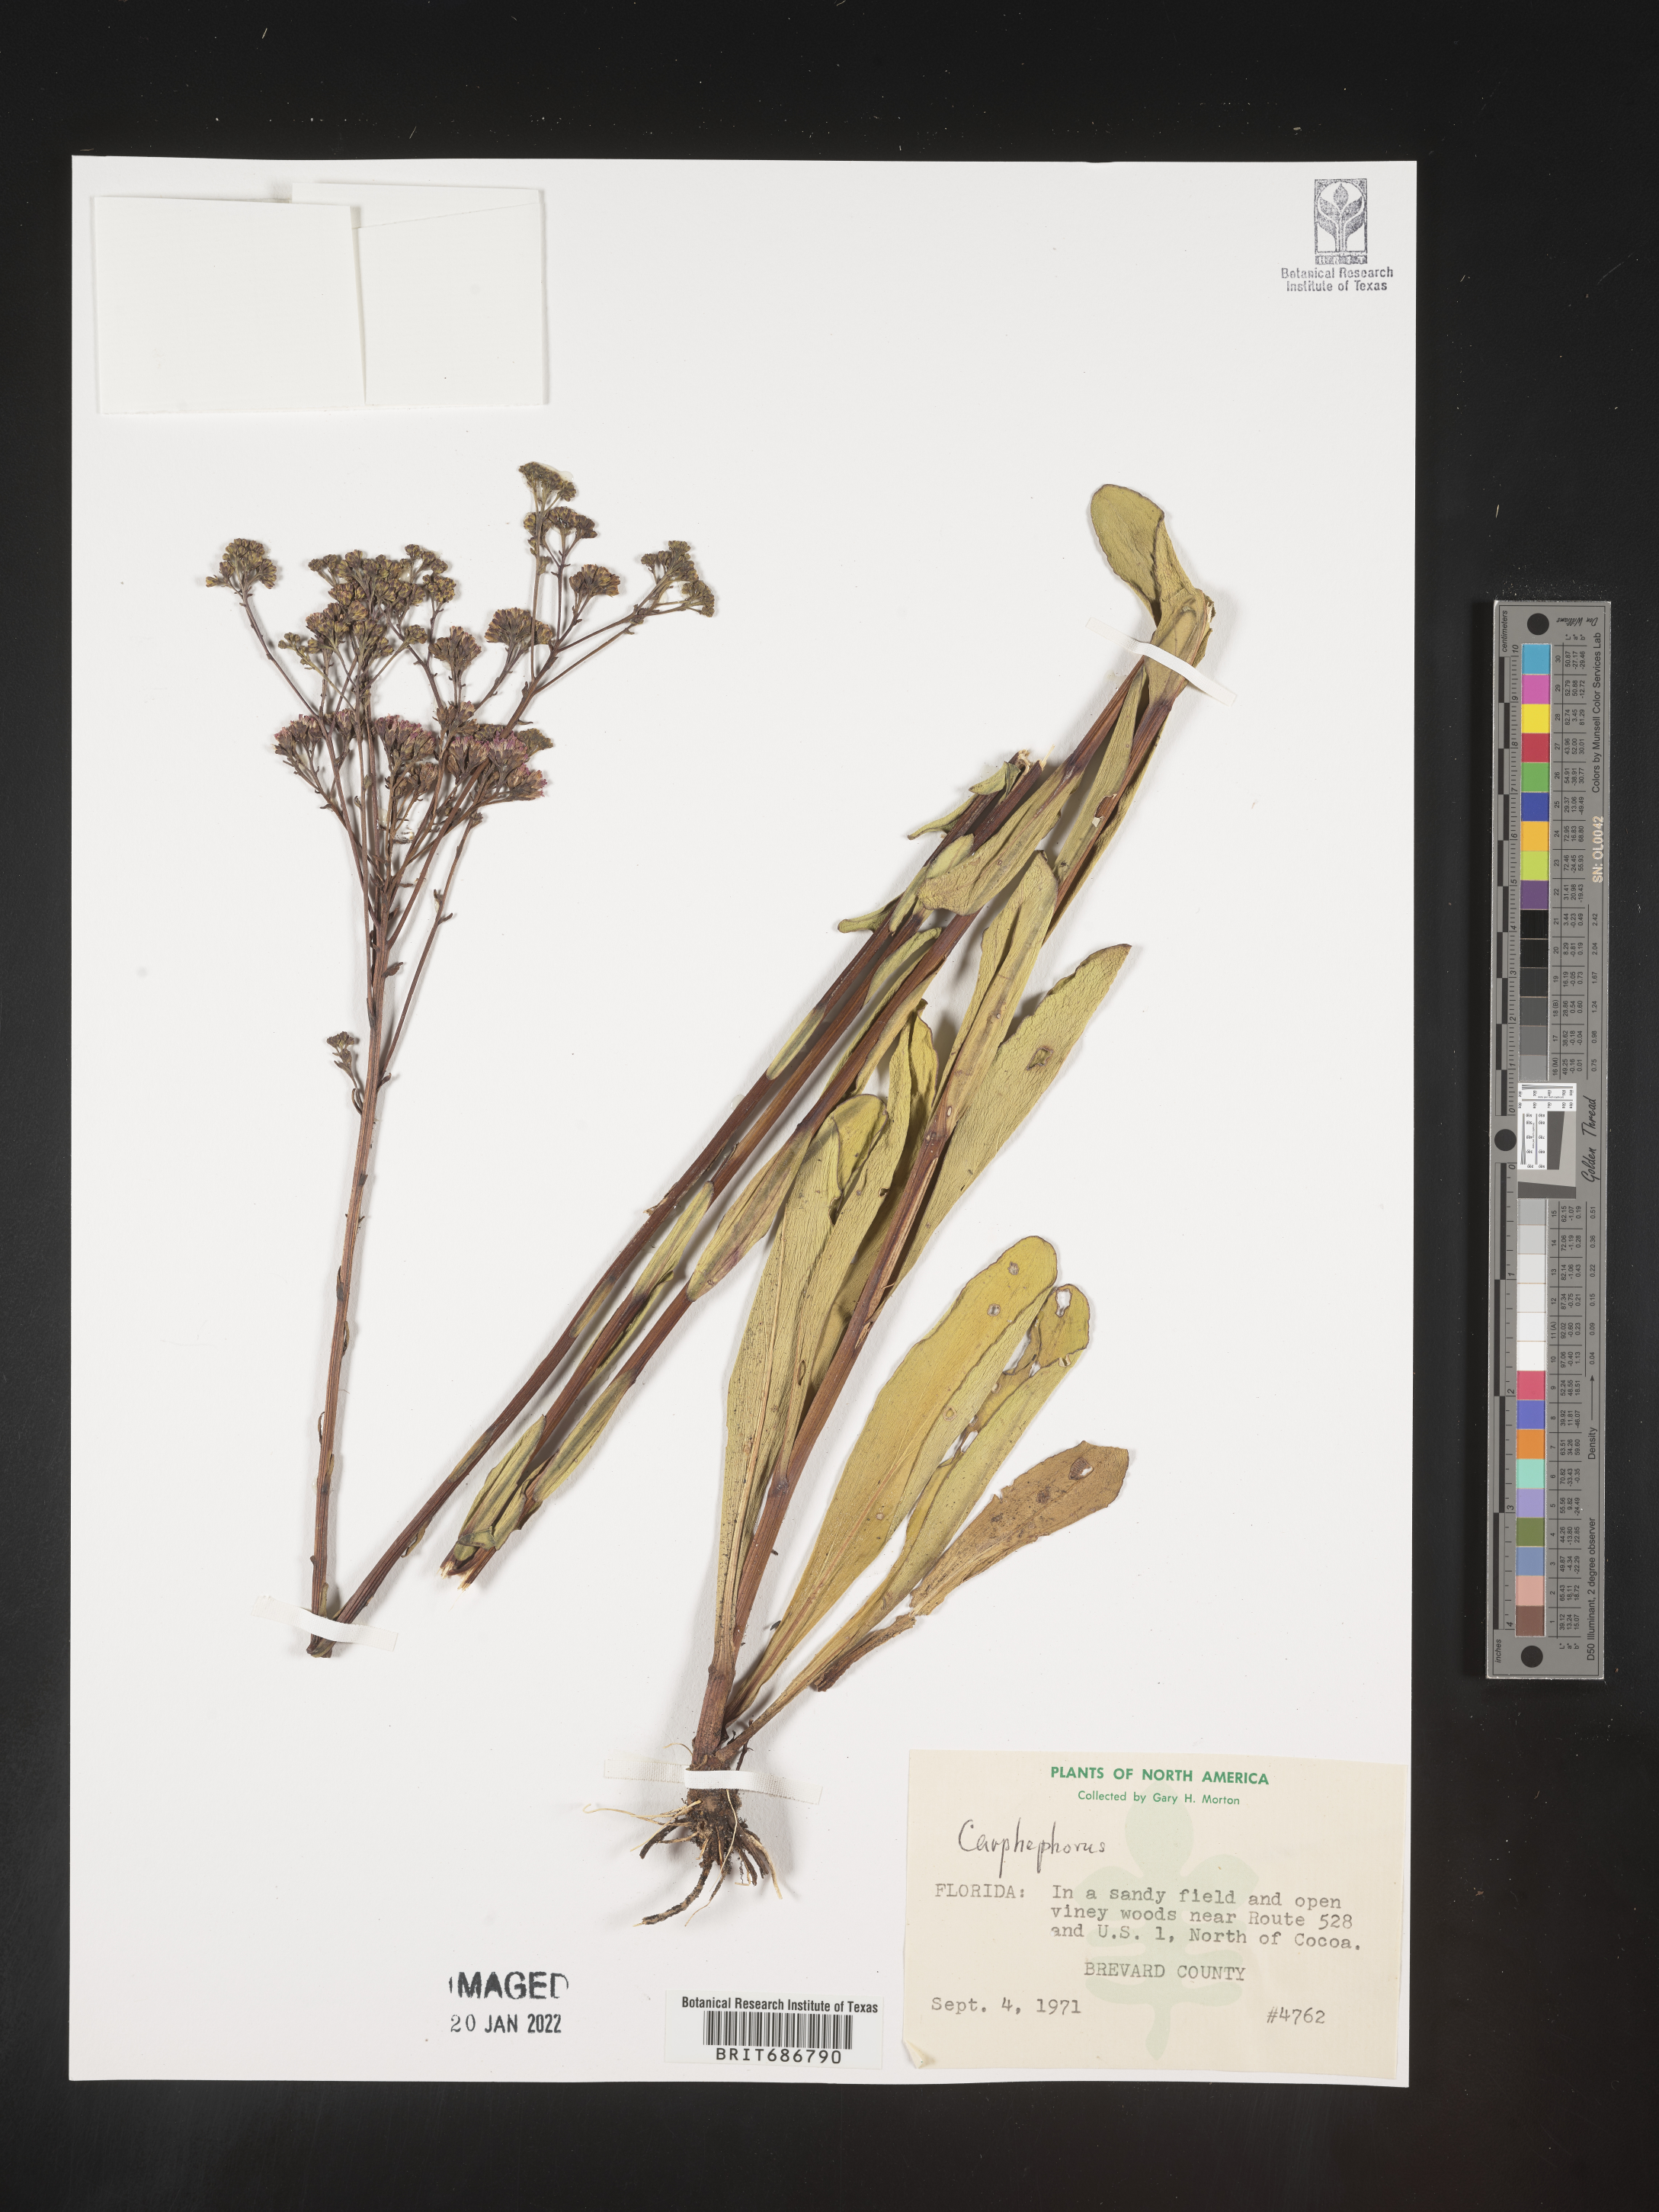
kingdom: Plantae
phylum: Tracheophyta
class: Magnoliopsida
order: Asterales
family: Asteraceae
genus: Carphephorus
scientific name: Carphephorus
